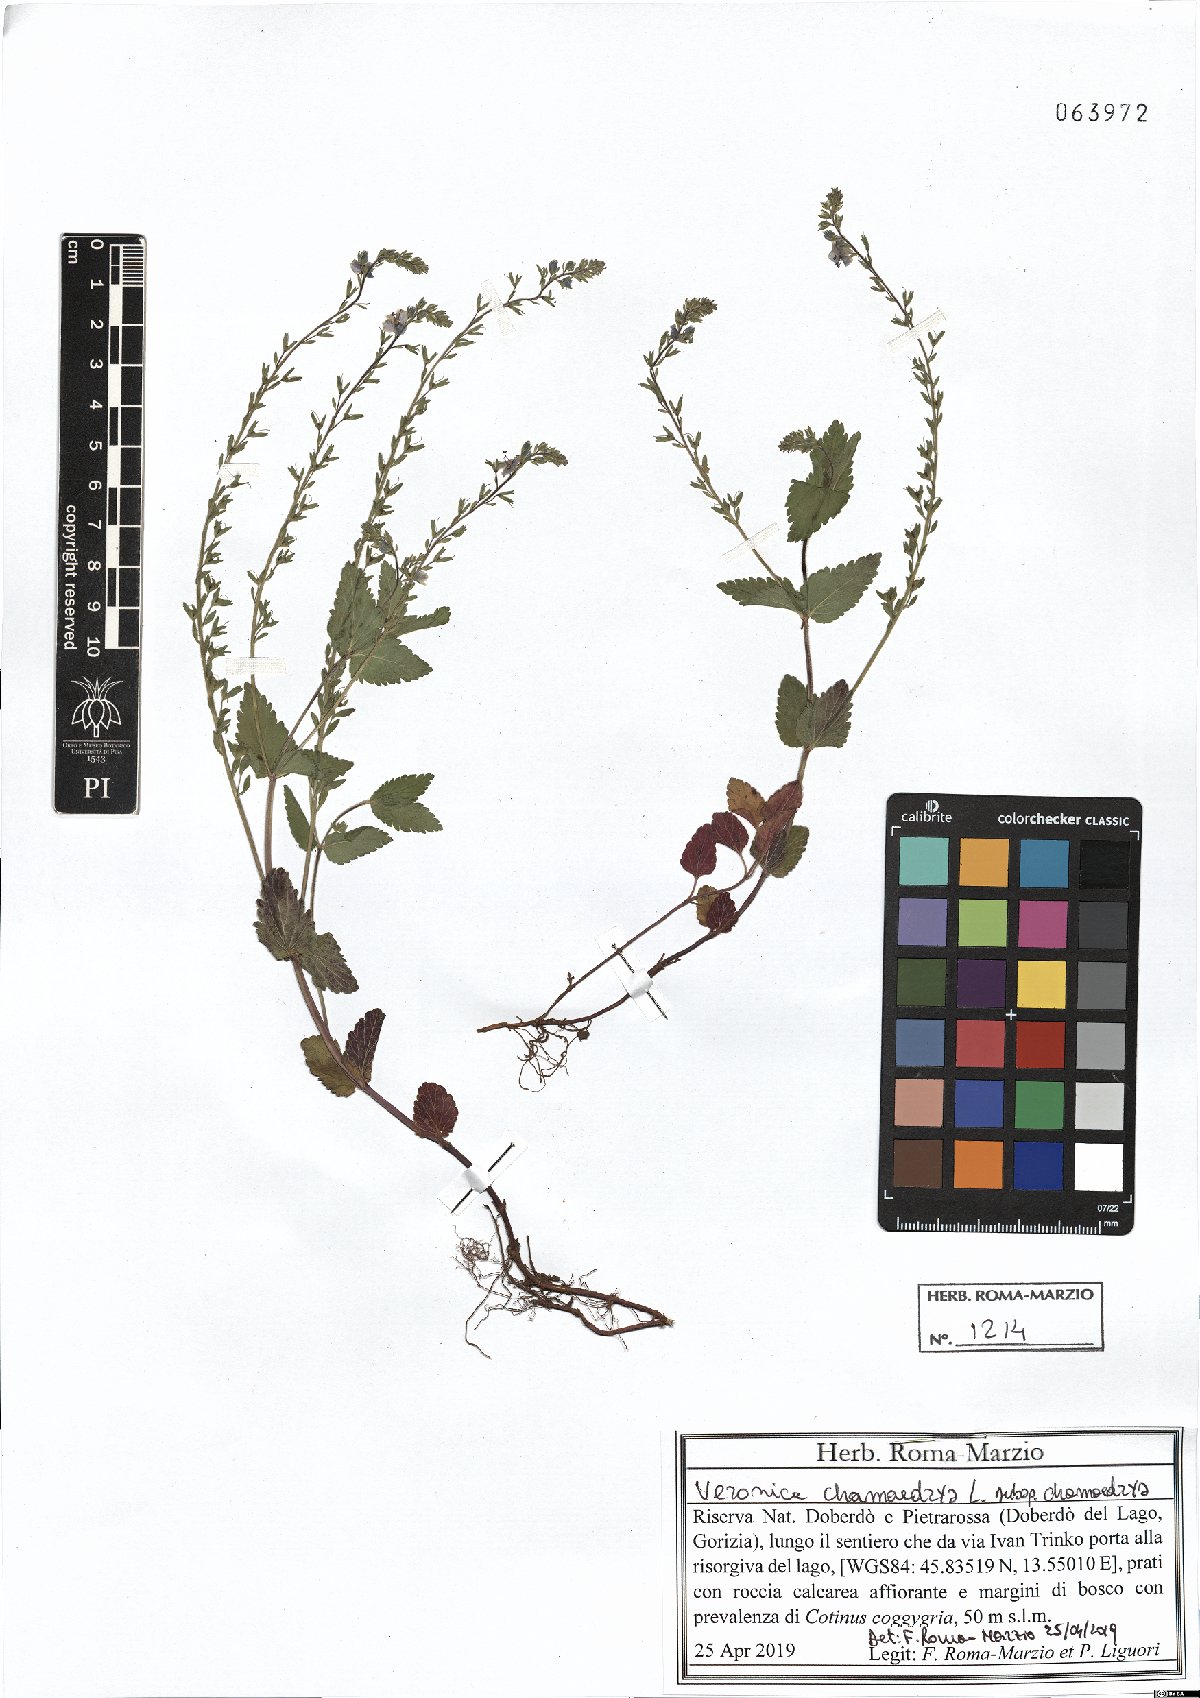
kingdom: Plantae
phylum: Tracheophyta
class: Magnoliopsida
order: Lamiales
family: Plantaginaceae
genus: Veronica
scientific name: Veronica chamaedrys
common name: Germander speedwell
